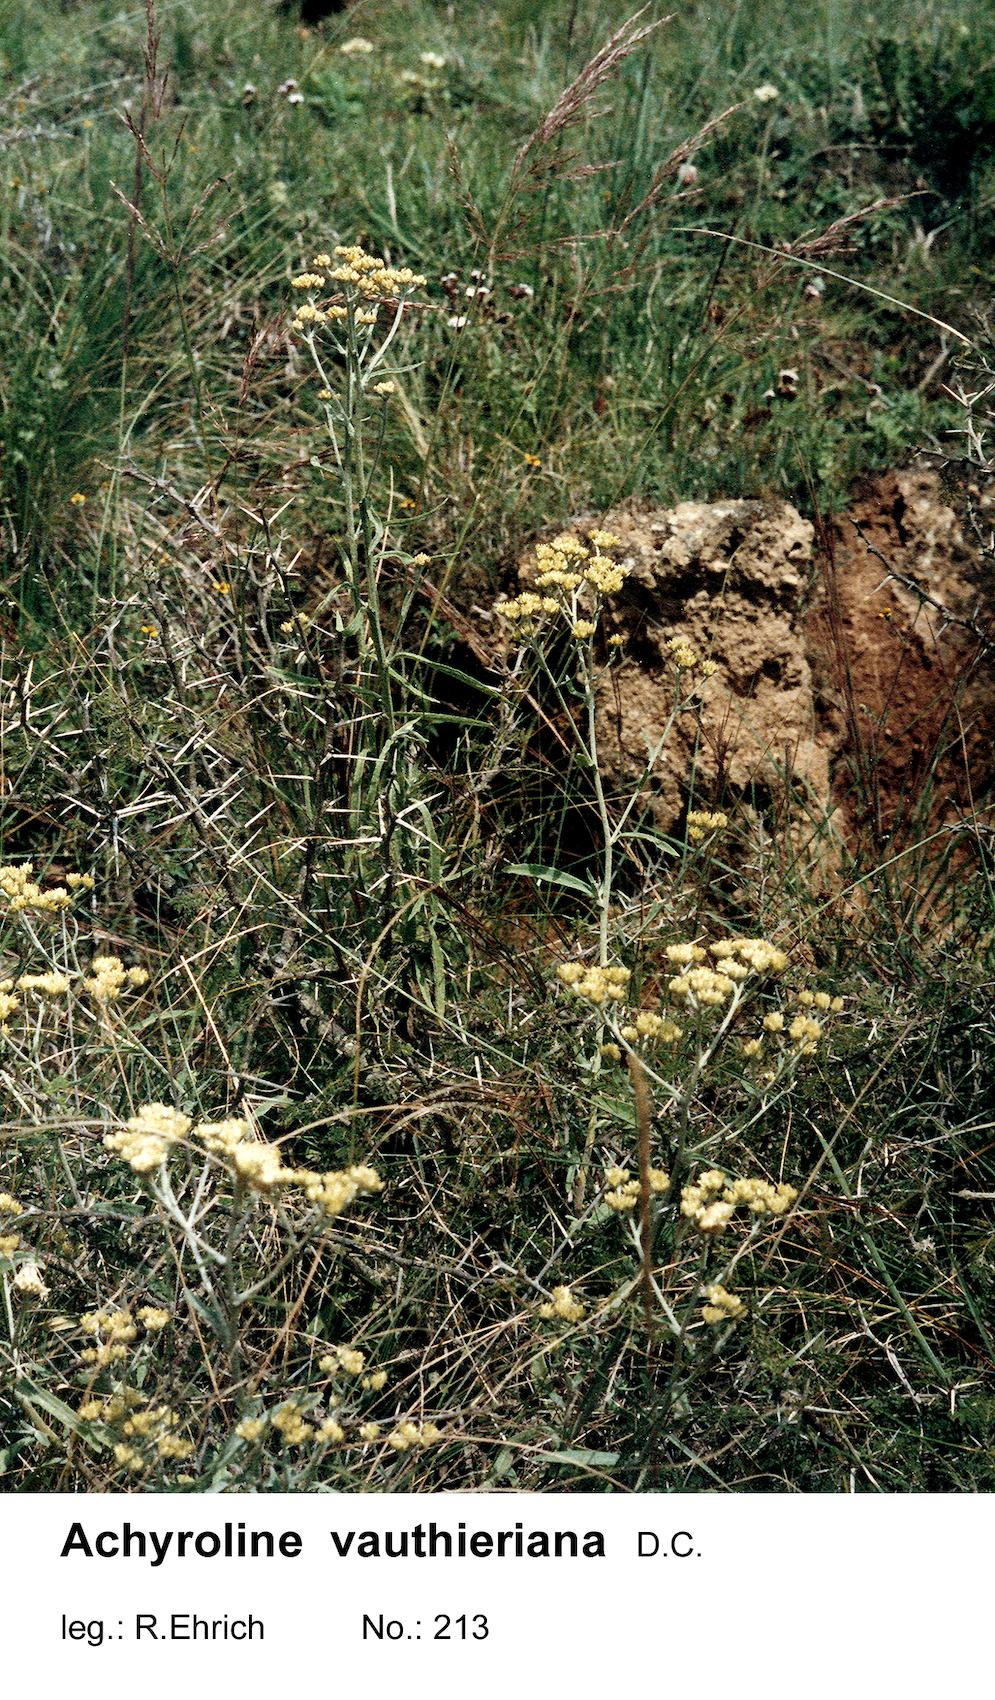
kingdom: Plantae
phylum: Tracheophyta
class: Magnoliopsida
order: Asterales
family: Asteraceae
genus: Achyrocline
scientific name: Achyrocline vauthieriana
